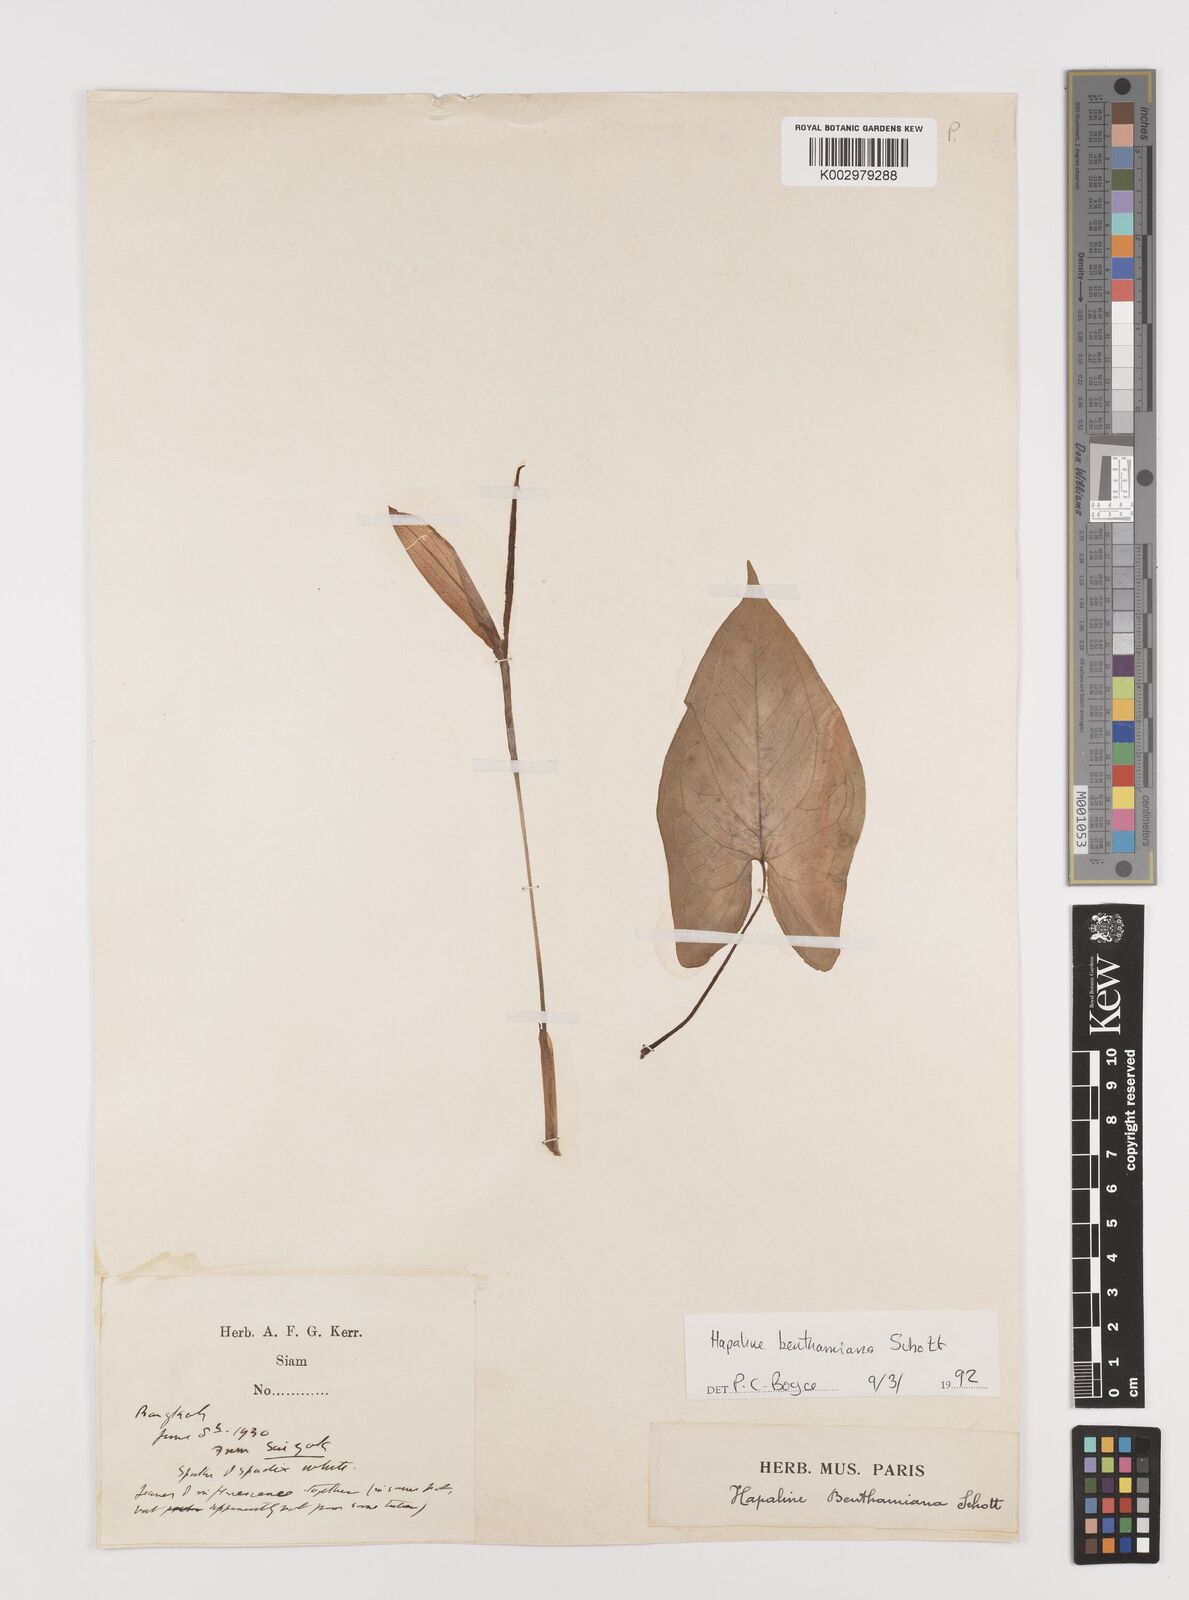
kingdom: Plantae
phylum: Tracheophyta
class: Liliopsida
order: Alismatales
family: Araceae
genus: Hapaline
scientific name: Hapaline benthamiana
